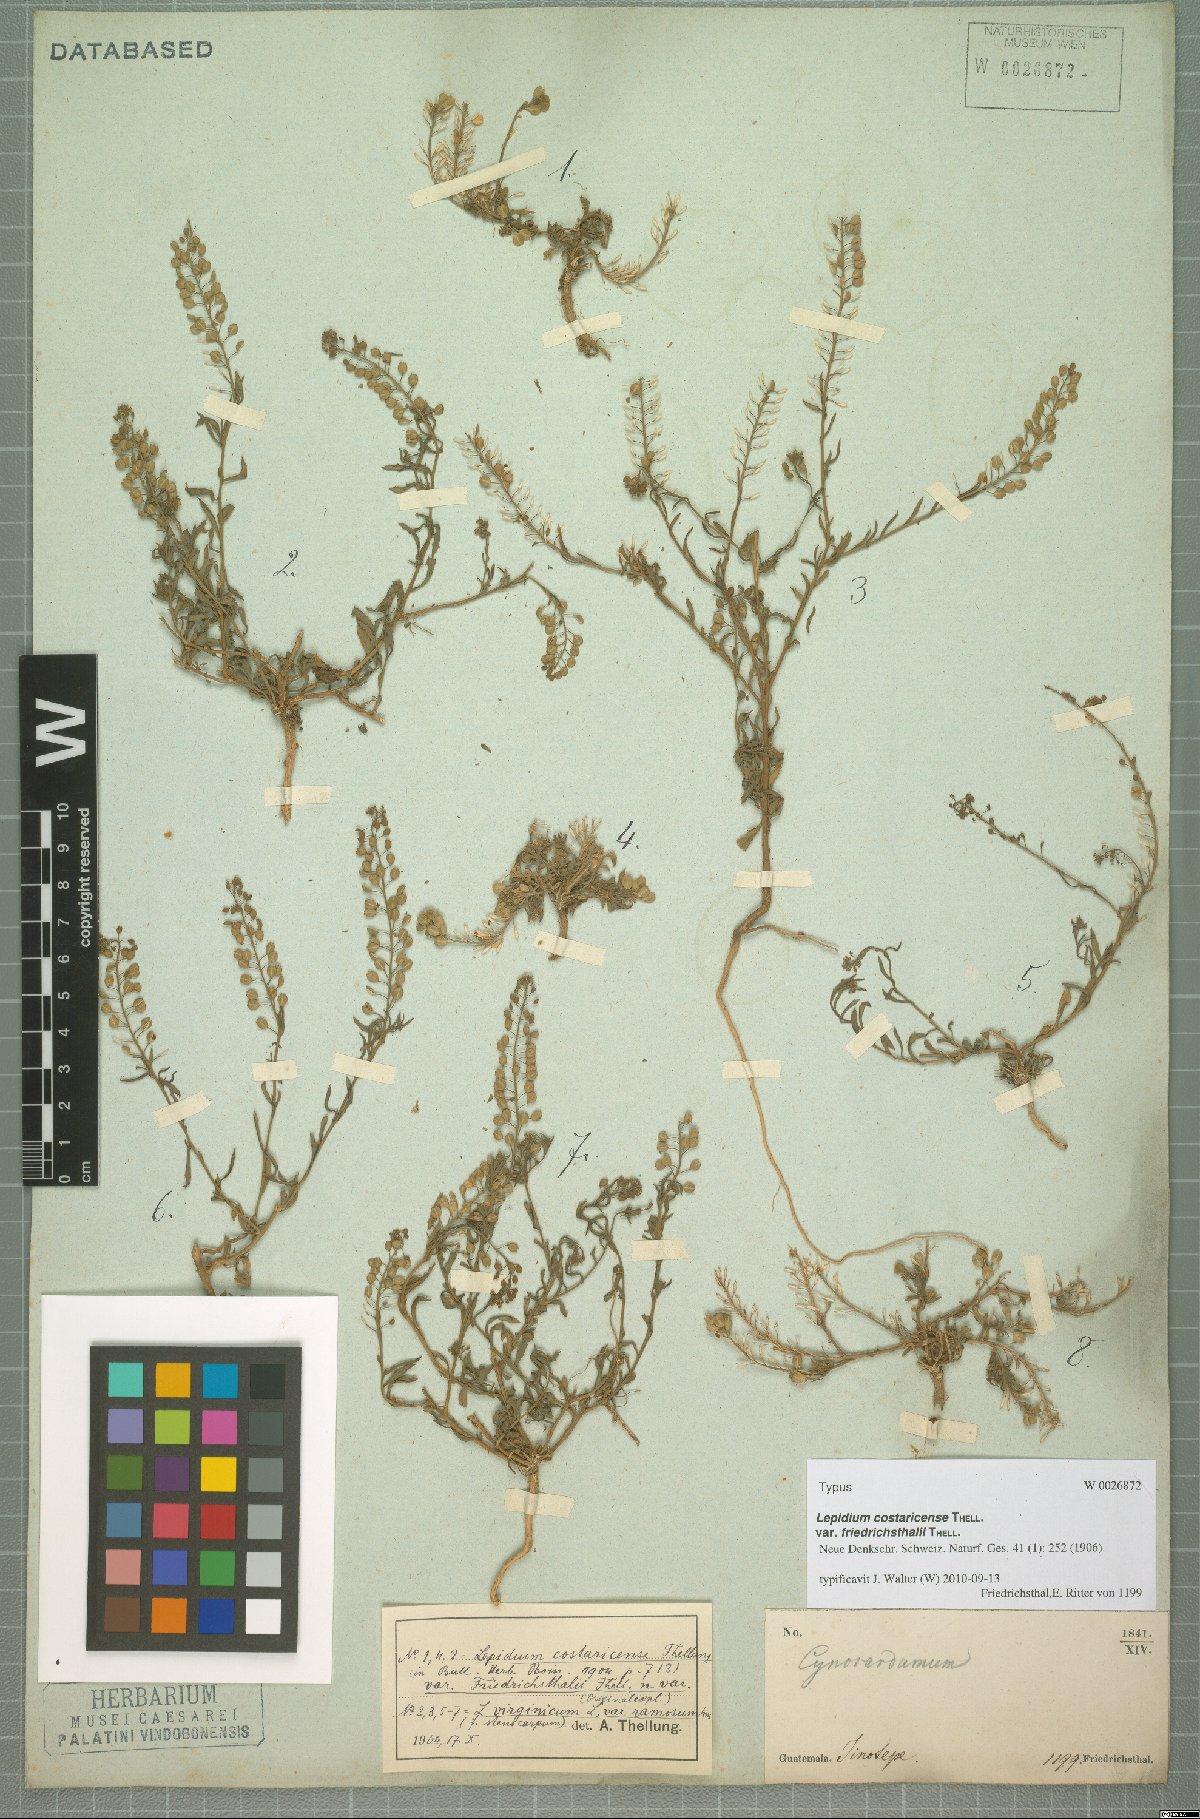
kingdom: Plantae
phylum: Tracheophyta
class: Magnoliopsida
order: Brassicales
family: Brassicaceae
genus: Lepidium
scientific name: Lepidium costaricense
